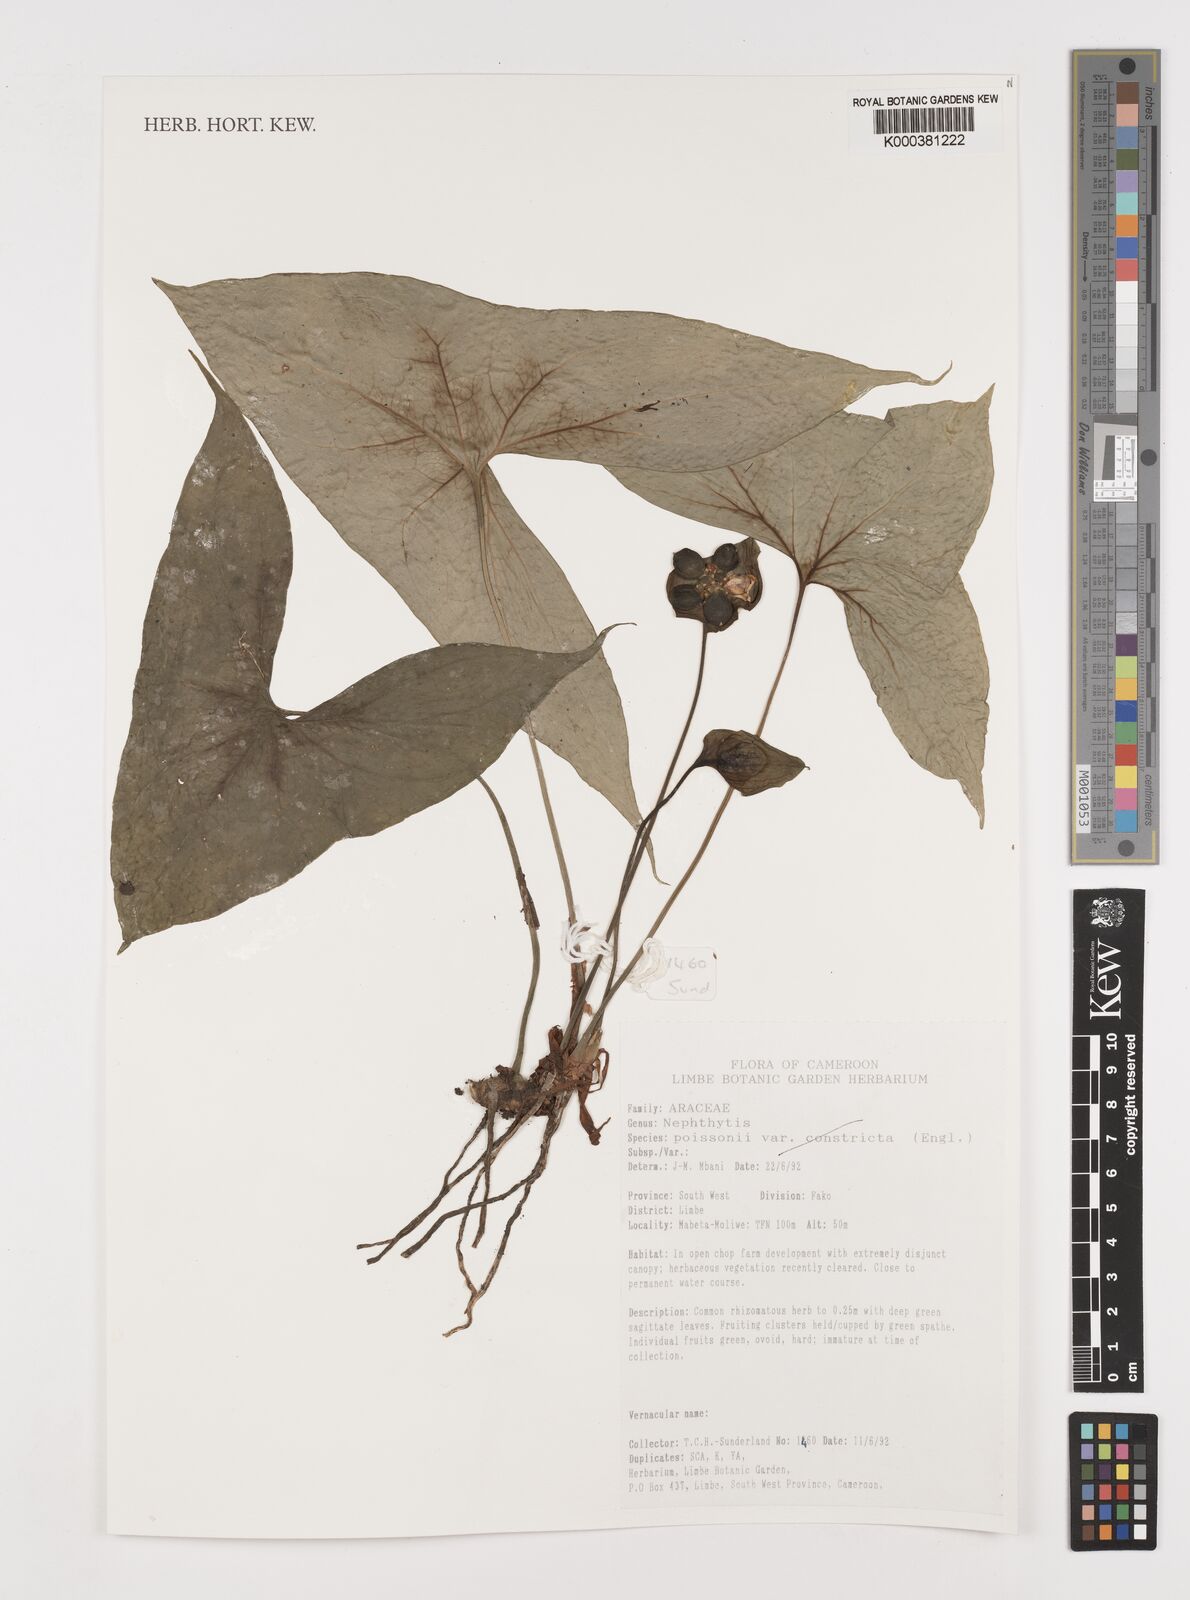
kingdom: Plantae
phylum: Tracheophyta
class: Liliopsida
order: Alismatales
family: Araceae
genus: Nephthytis
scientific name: Nephthytis poissonii
